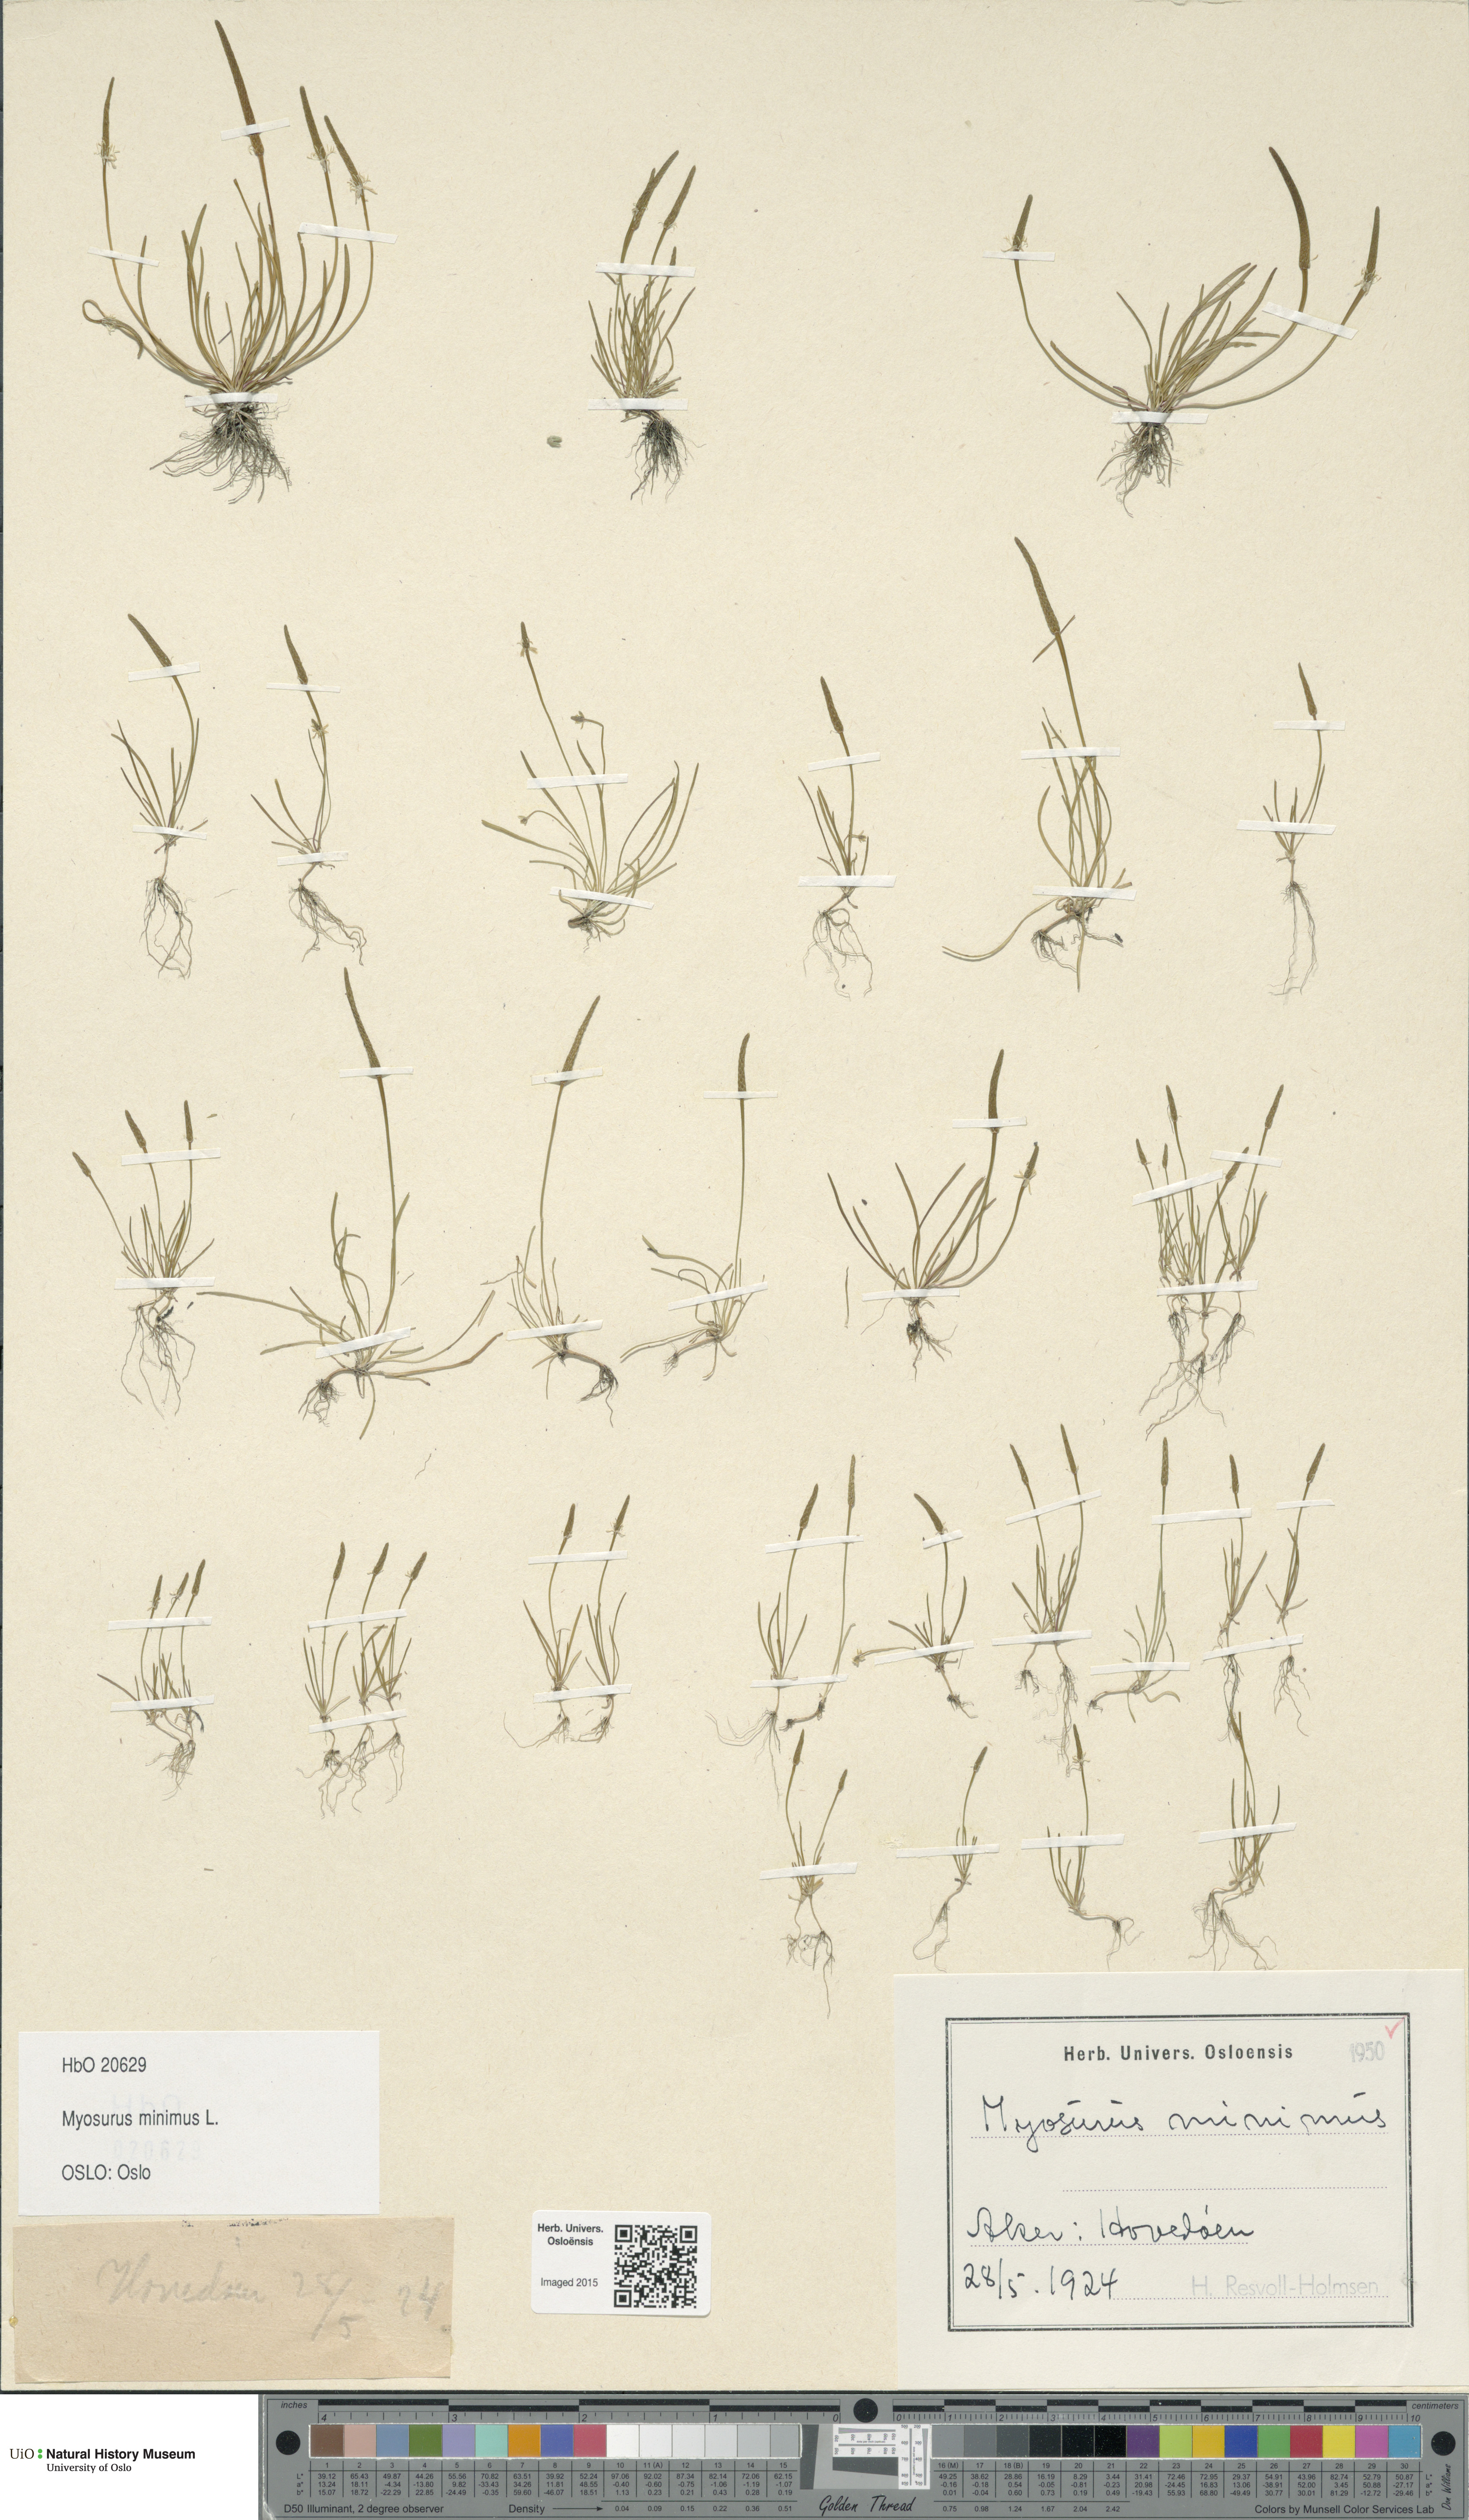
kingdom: Plantae
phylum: Tracheophyta
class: Magnoliopsida
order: Ranunculales
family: Ranunculaceae
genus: Myosurus
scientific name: Myosurus minimus
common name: Mousetail
